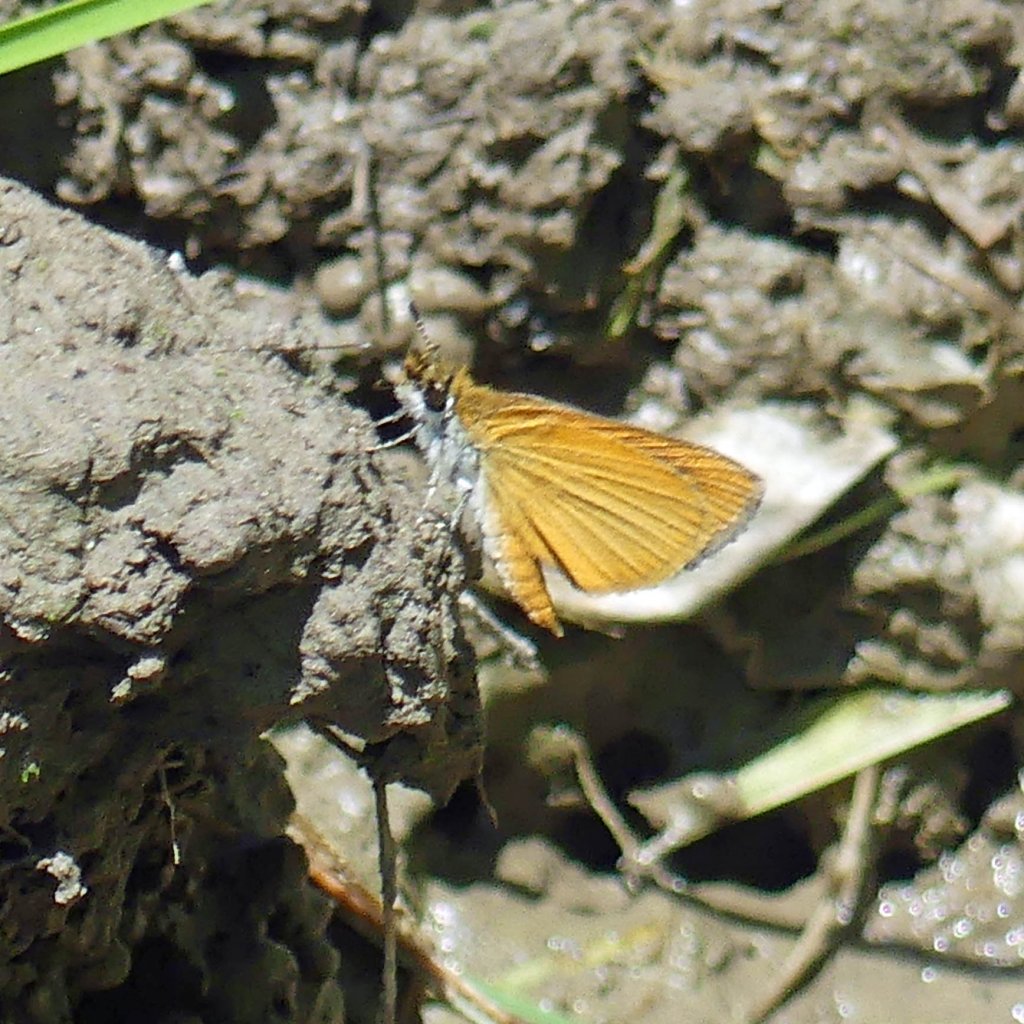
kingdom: Animalia
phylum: Arthropoda
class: Insecta
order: Lepidoptera
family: Hesperiidae
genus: Ancyloxypha
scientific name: Ancyloxypha numitor
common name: Least Skipper
